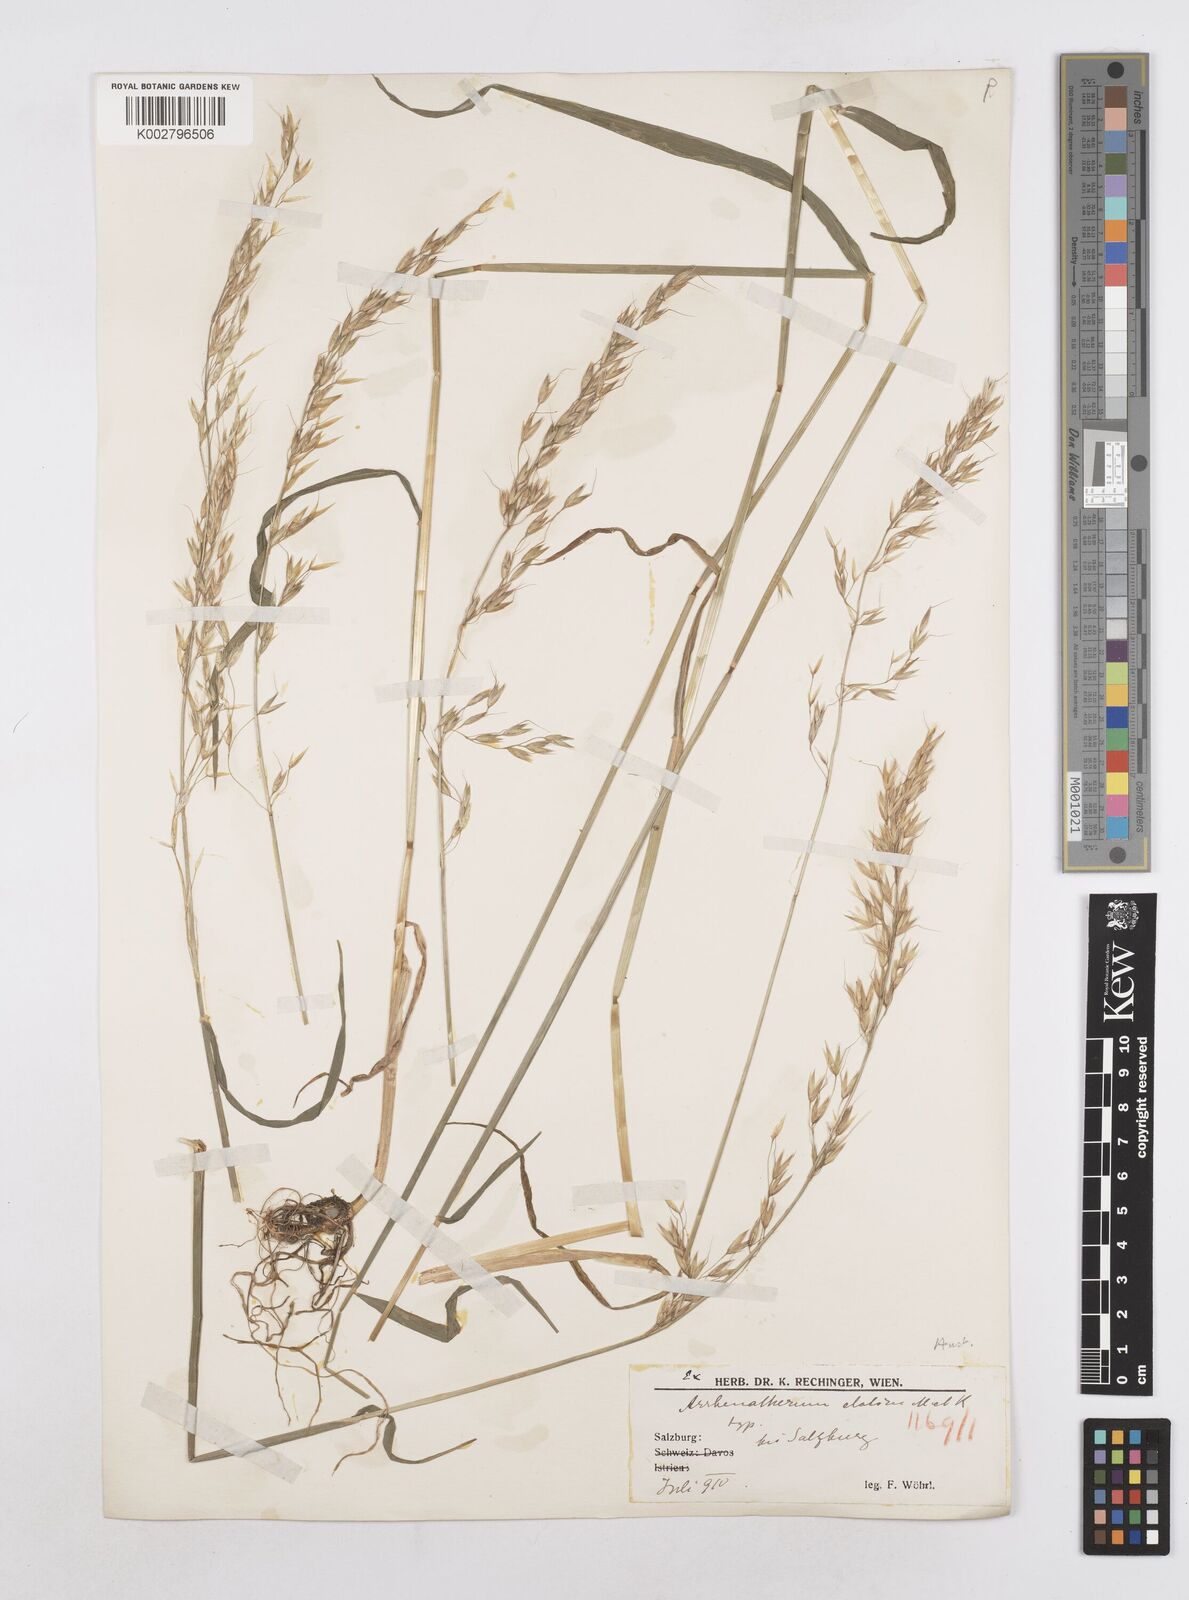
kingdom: Plantae
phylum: Tracheophyta
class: Liliopsida
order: Poales
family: Poaceae
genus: Arrhenatherum
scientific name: Arrhenatherum elatius
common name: Tall oatgrass
